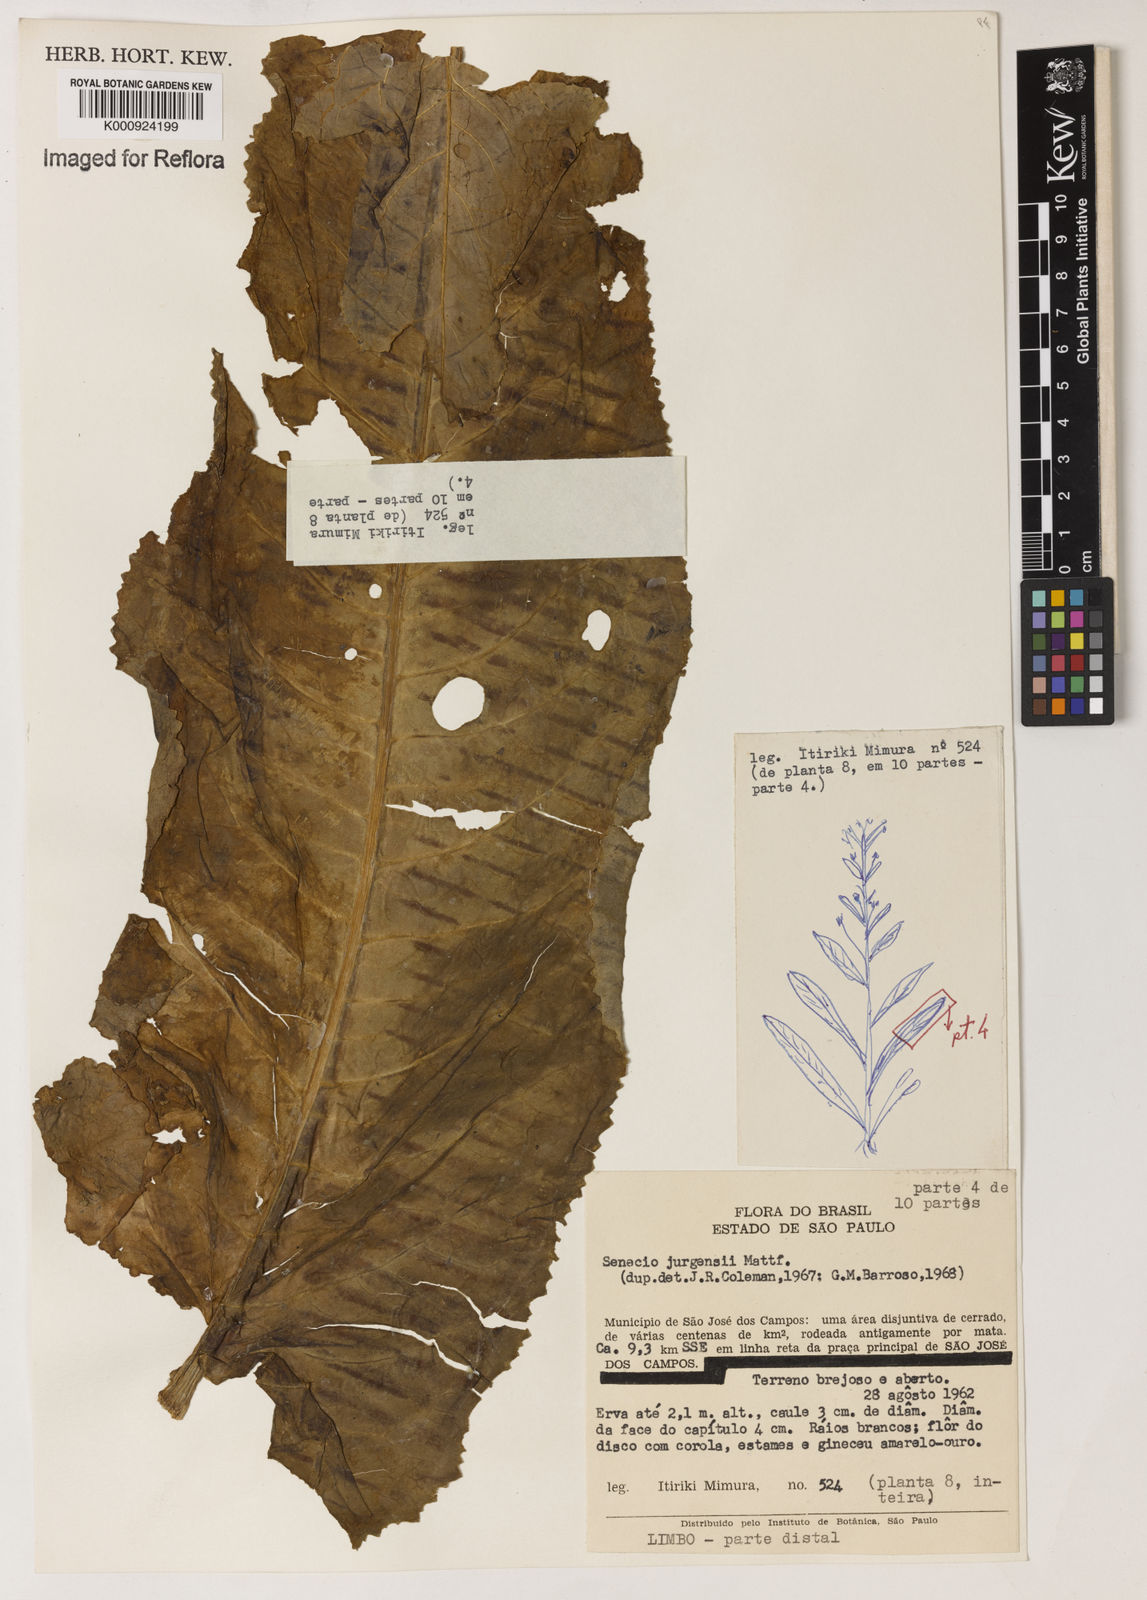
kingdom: Plantae
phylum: Tracheophyta
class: Magnoliopsida
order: Asterales
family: Asteraceae
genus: Senecio
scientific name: Senecio juergensii
